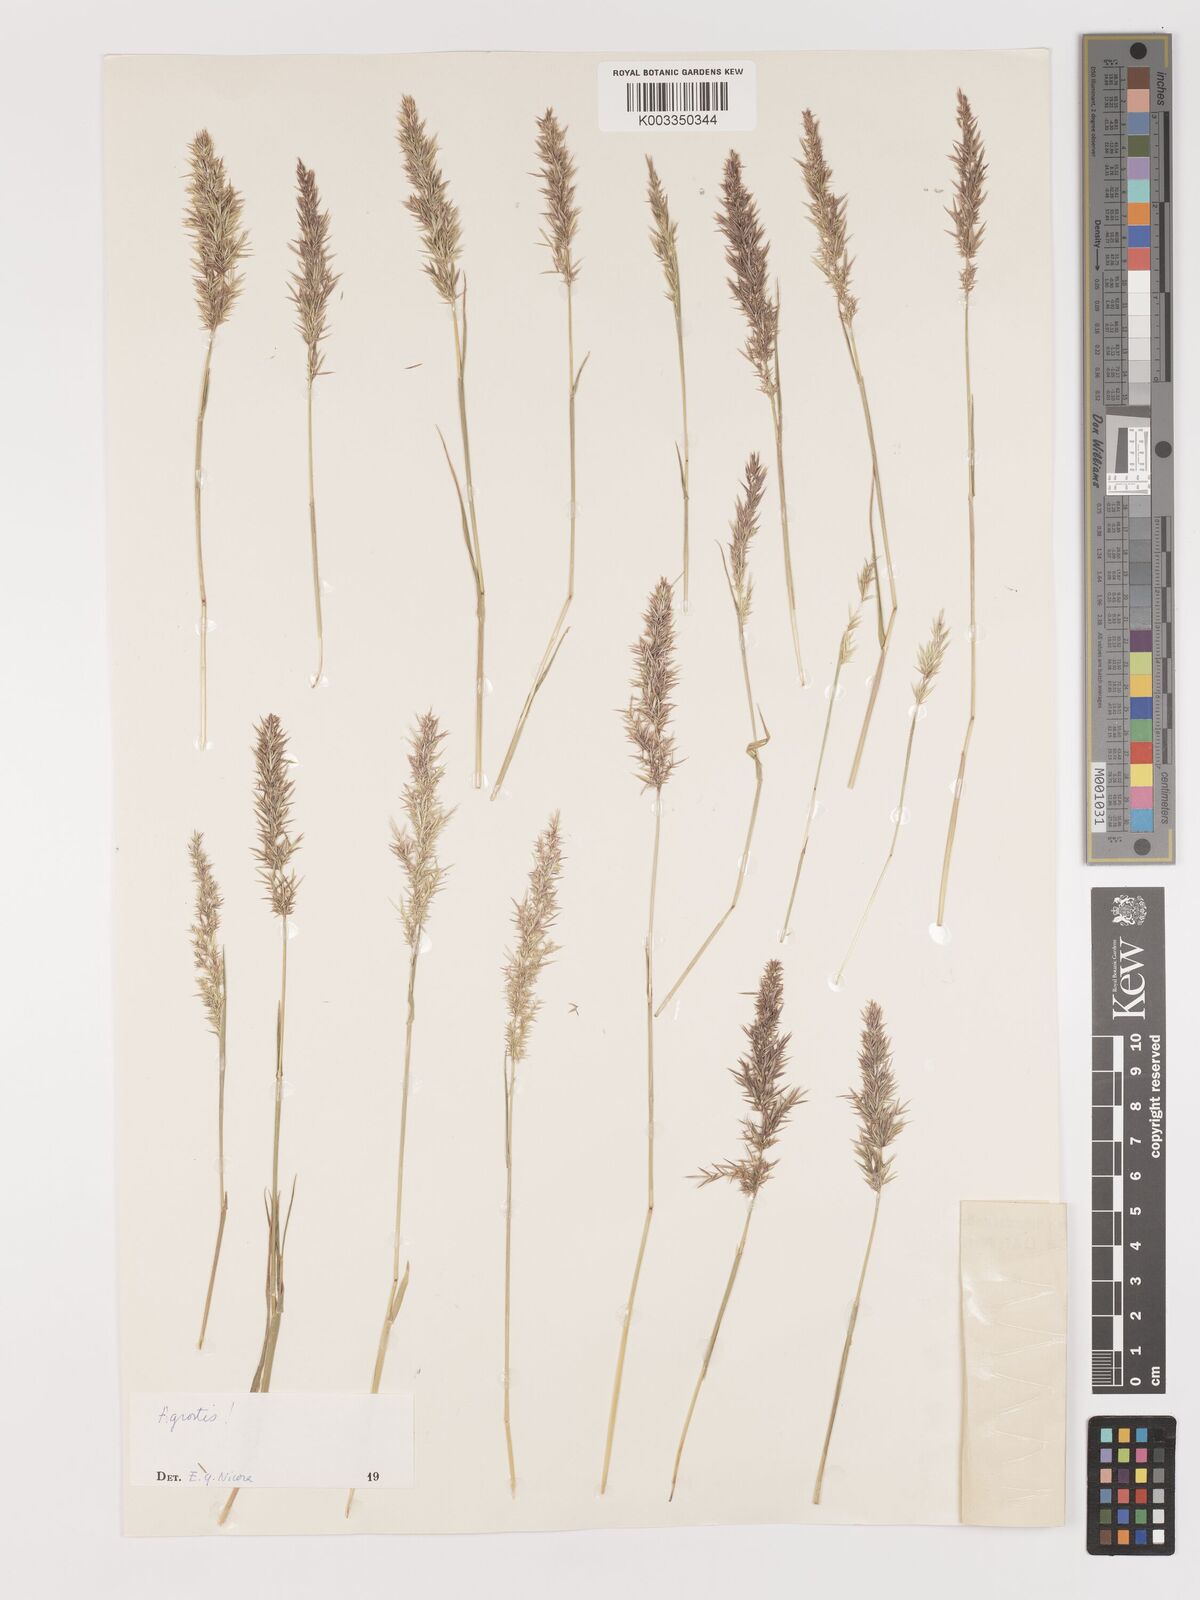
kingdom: Plantae
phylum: Tracheophyta
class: Liliopsida
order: Poales
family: Poaceae
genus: Agrostis
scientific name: Agrostis
